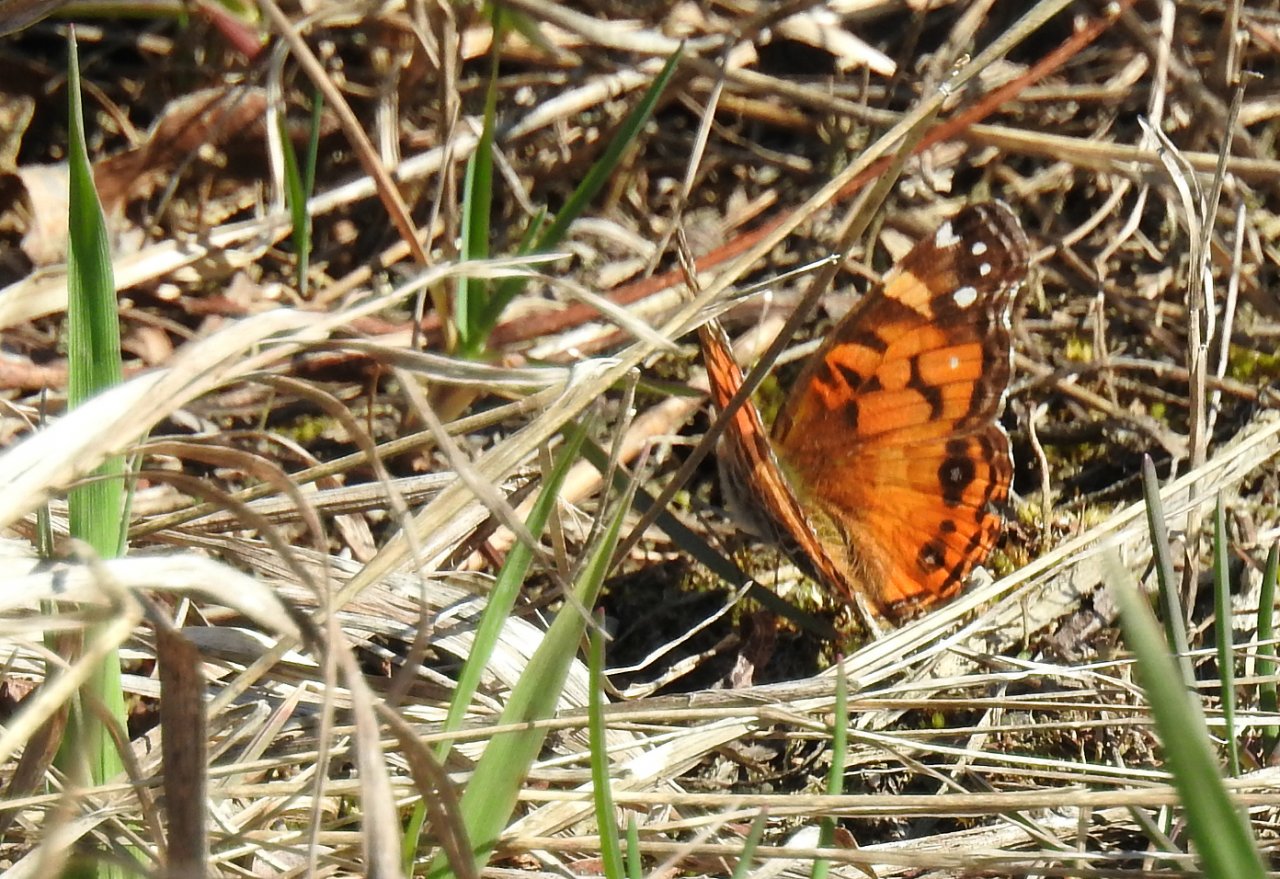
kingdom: Animalia
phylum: Arthropoda
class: Insecta
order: Lepidoptera
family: Nymphalidae
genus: Vanessa
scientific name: Vanessa virginiensis
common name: American Lady
